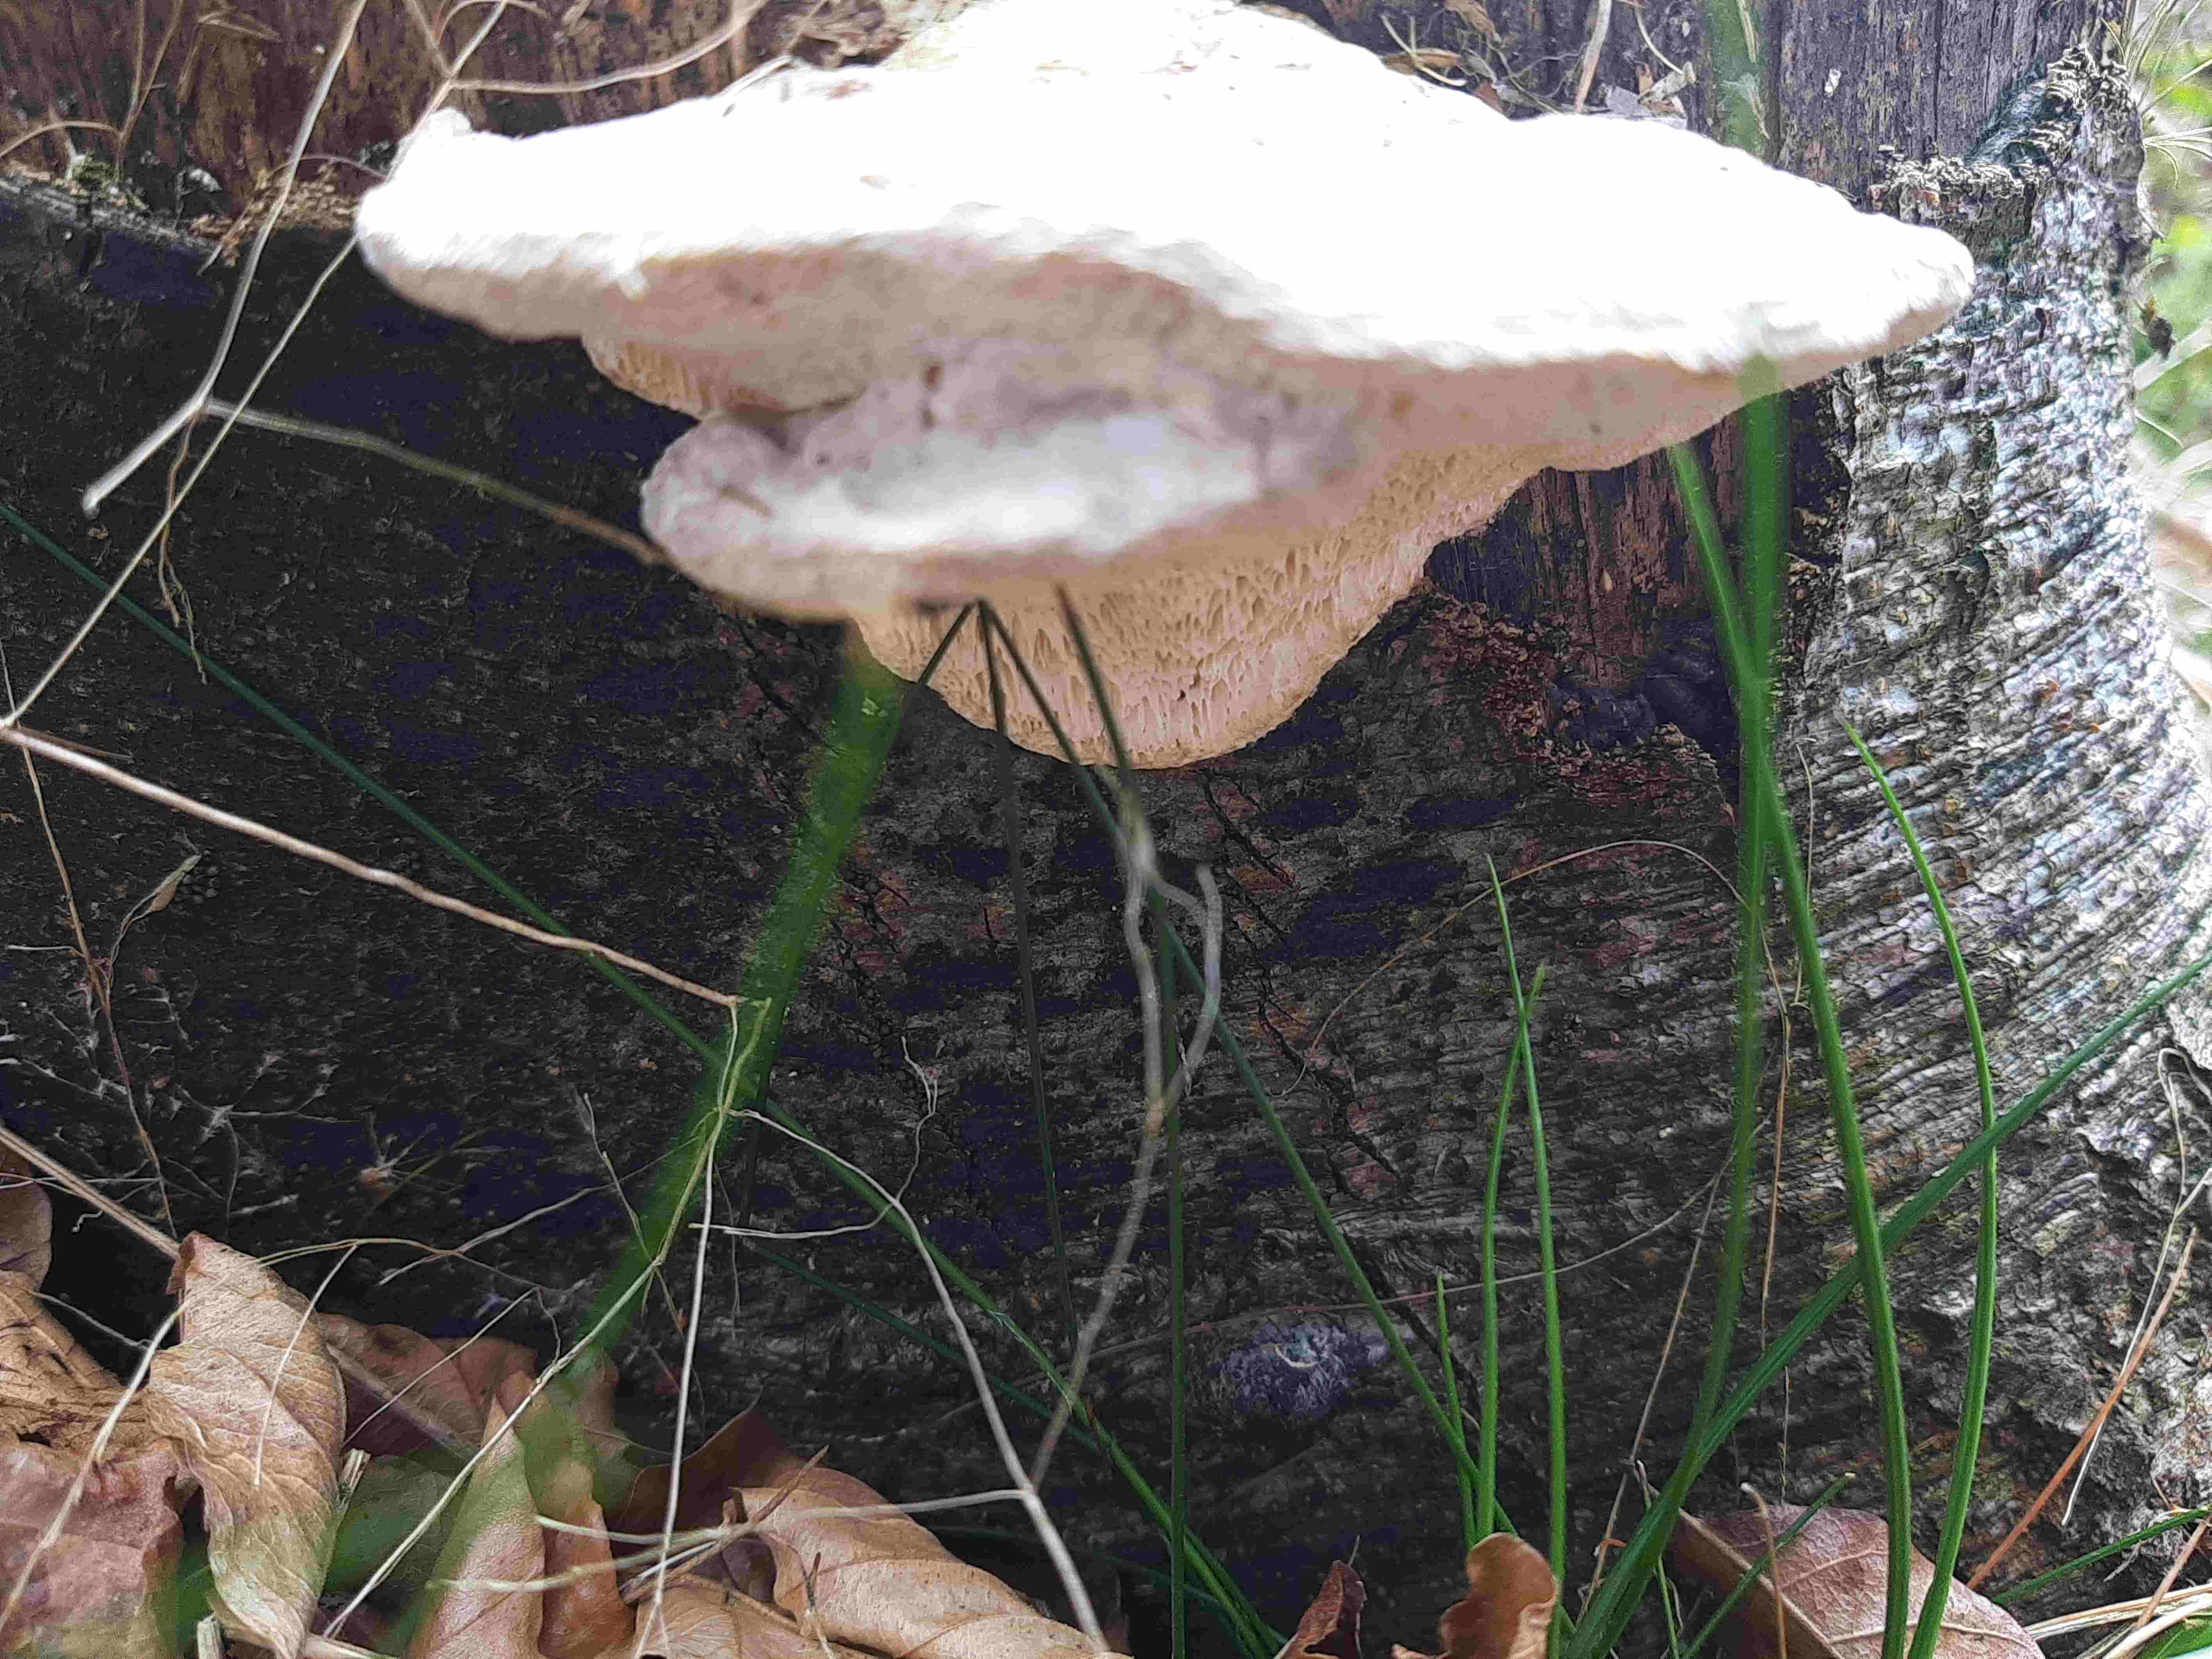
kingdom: Fungi
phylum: Basidiomycota
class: Agaricomycetes
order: Polyporales
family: Polyporaceae
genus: Trametes
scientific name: Trametes gibbosa
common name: puklet læderporesvamp
